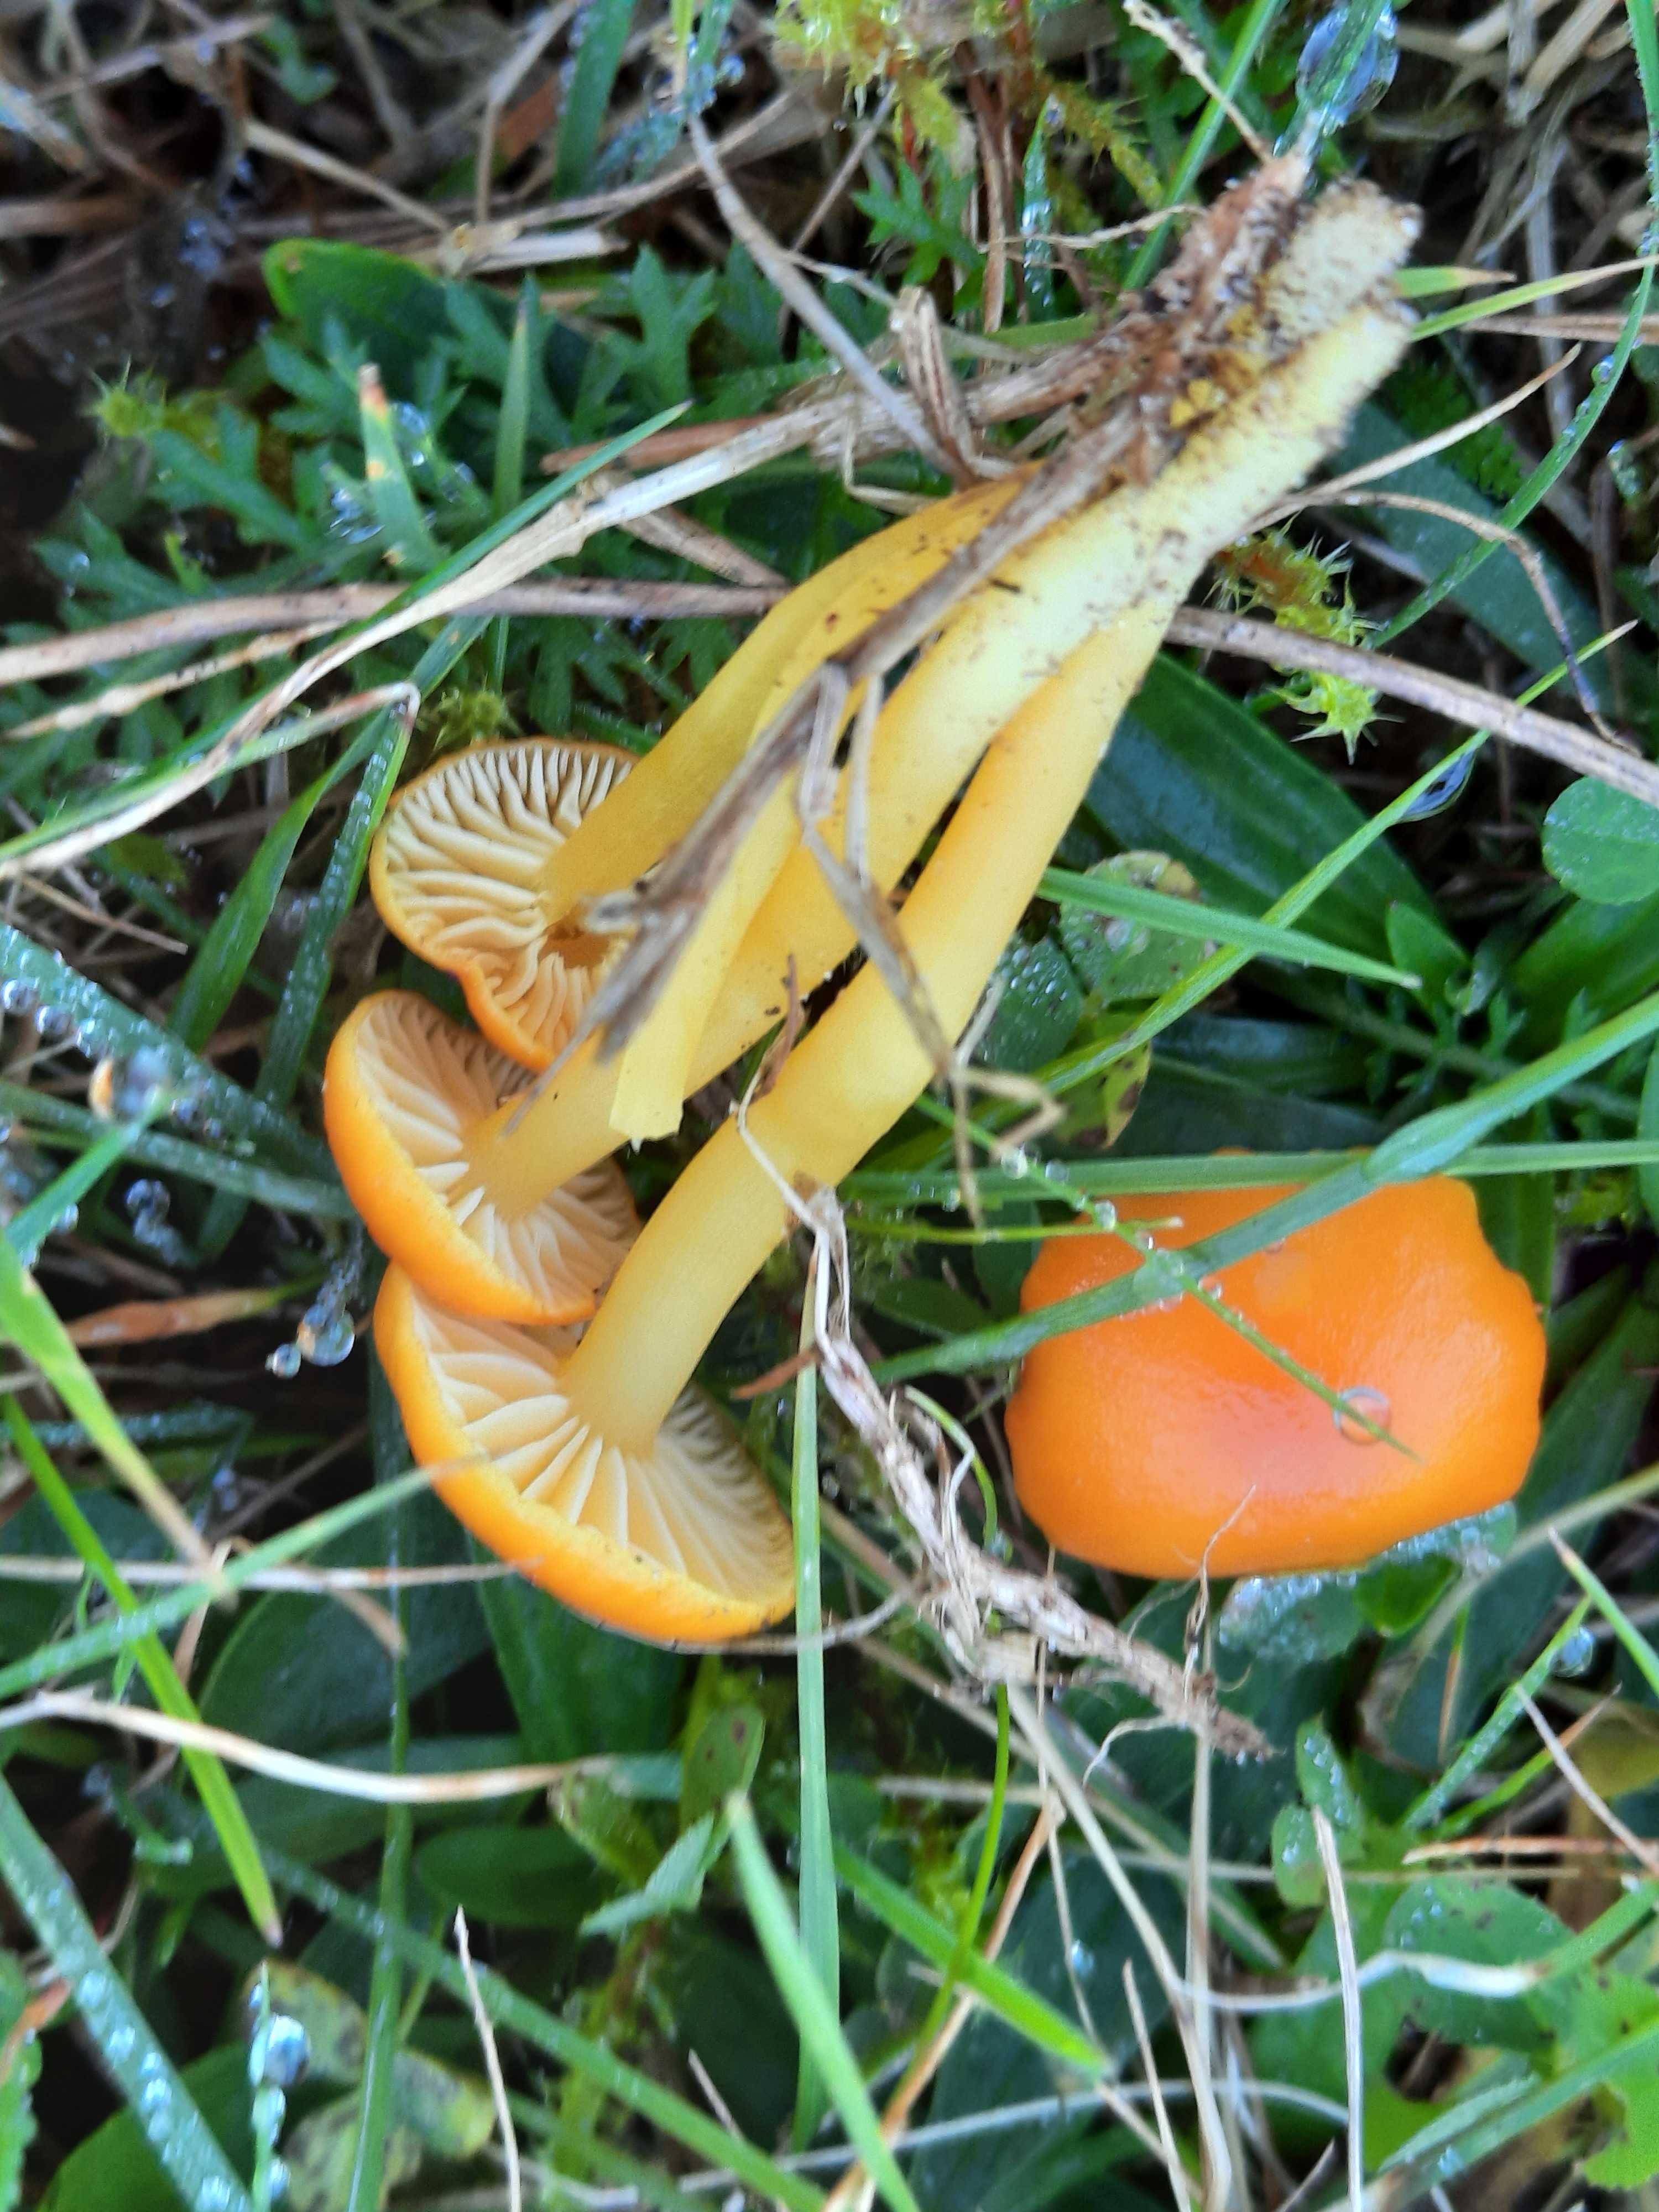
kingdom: Fungi
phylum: Basidiomycota
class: Agaricomycetes
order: Agaricales
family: Hygrophoraceae
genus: Hygrocybe
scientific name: Hygrocybe ceracea
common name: voksgul vokshat
